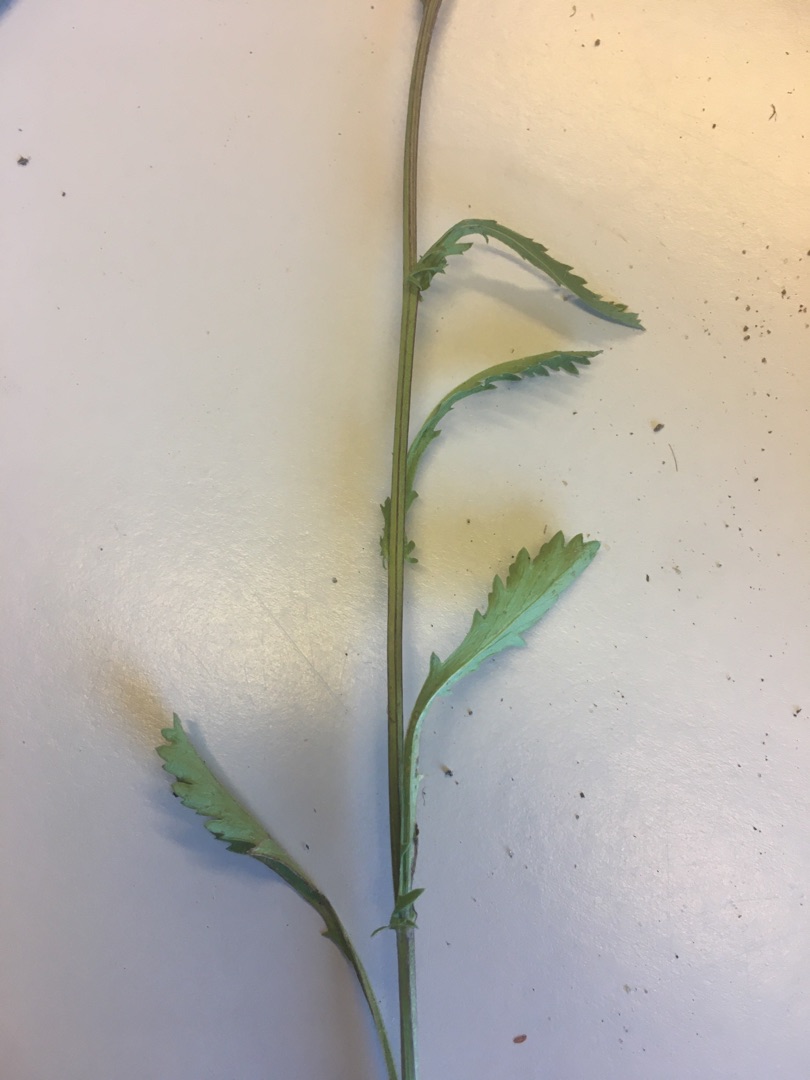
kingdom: Plantae
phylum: Tracheophyta
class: Magnoliopsida
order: Asterales
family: Asteraceae
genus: Leucanthemum
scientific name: Leucanthemum vulgare
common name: Hvid okseøje
